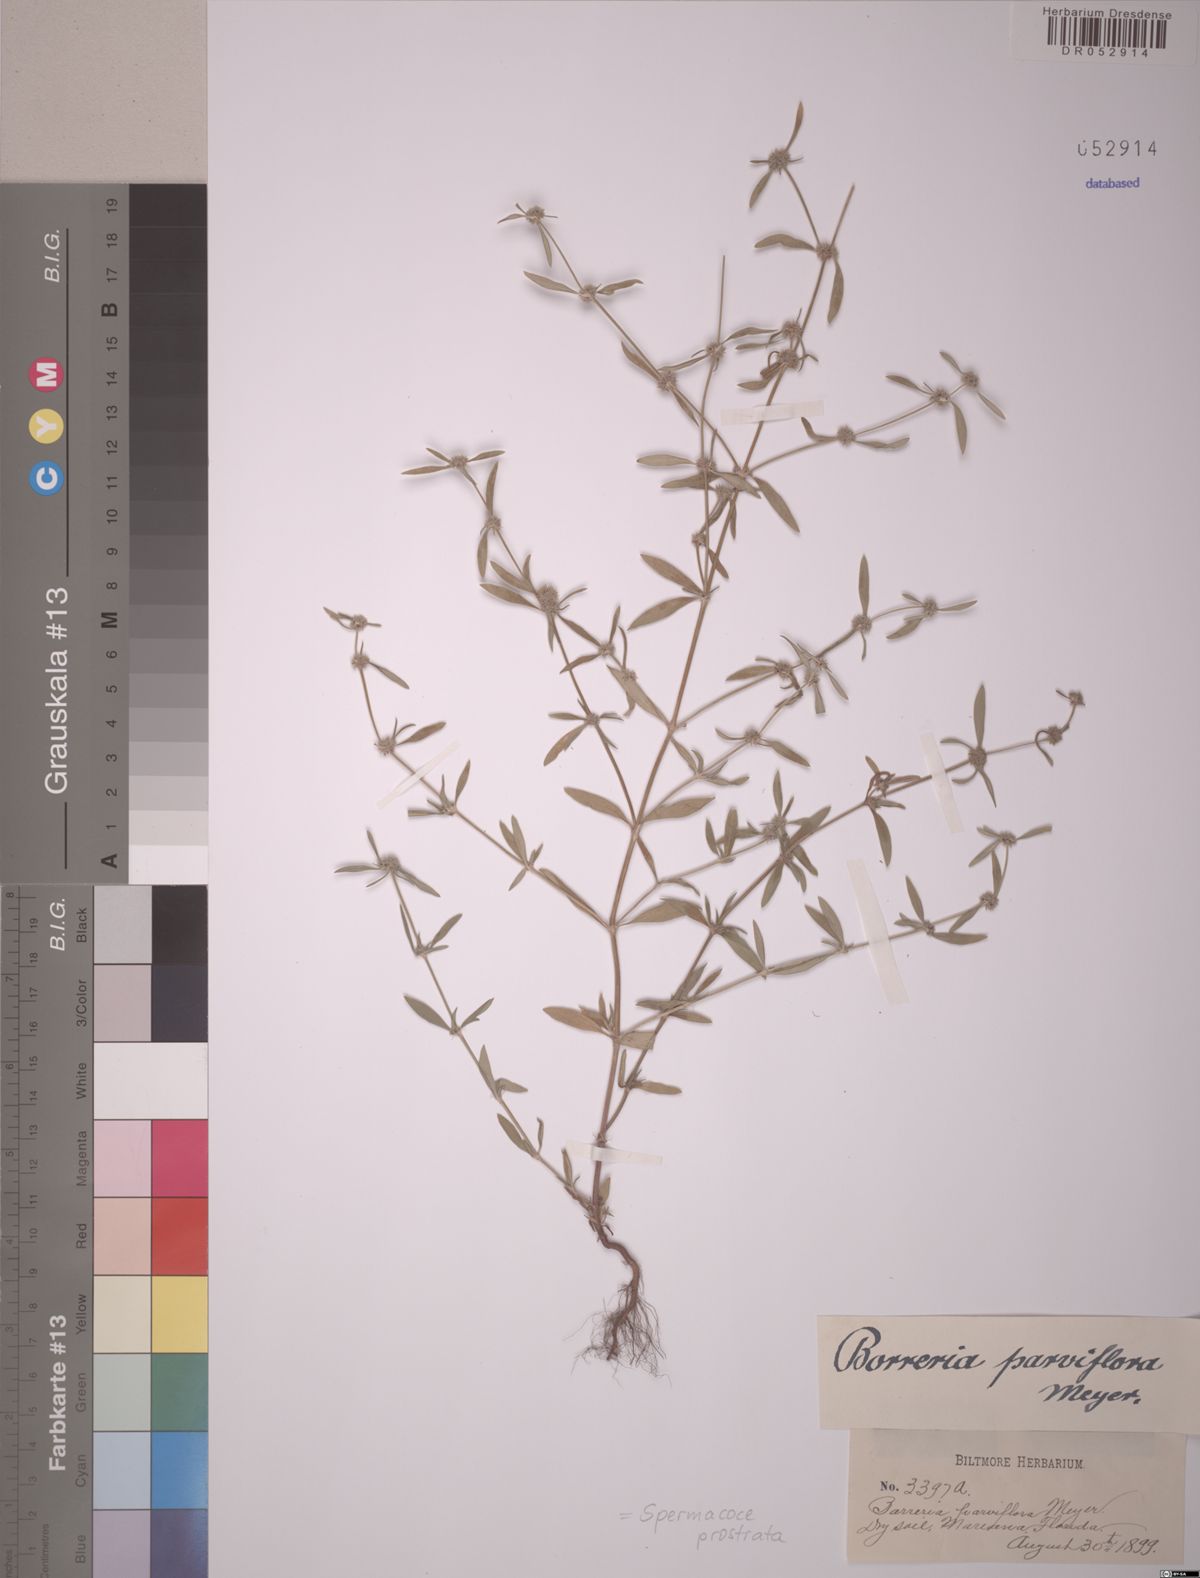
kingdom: Plantae
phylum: Tracheophyta
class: Magnoliopsida
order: Gentianales
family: Rubiaceae
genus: Spermacoce
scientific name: Spermacoce prostrata
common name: Prostrate false buttonweed
